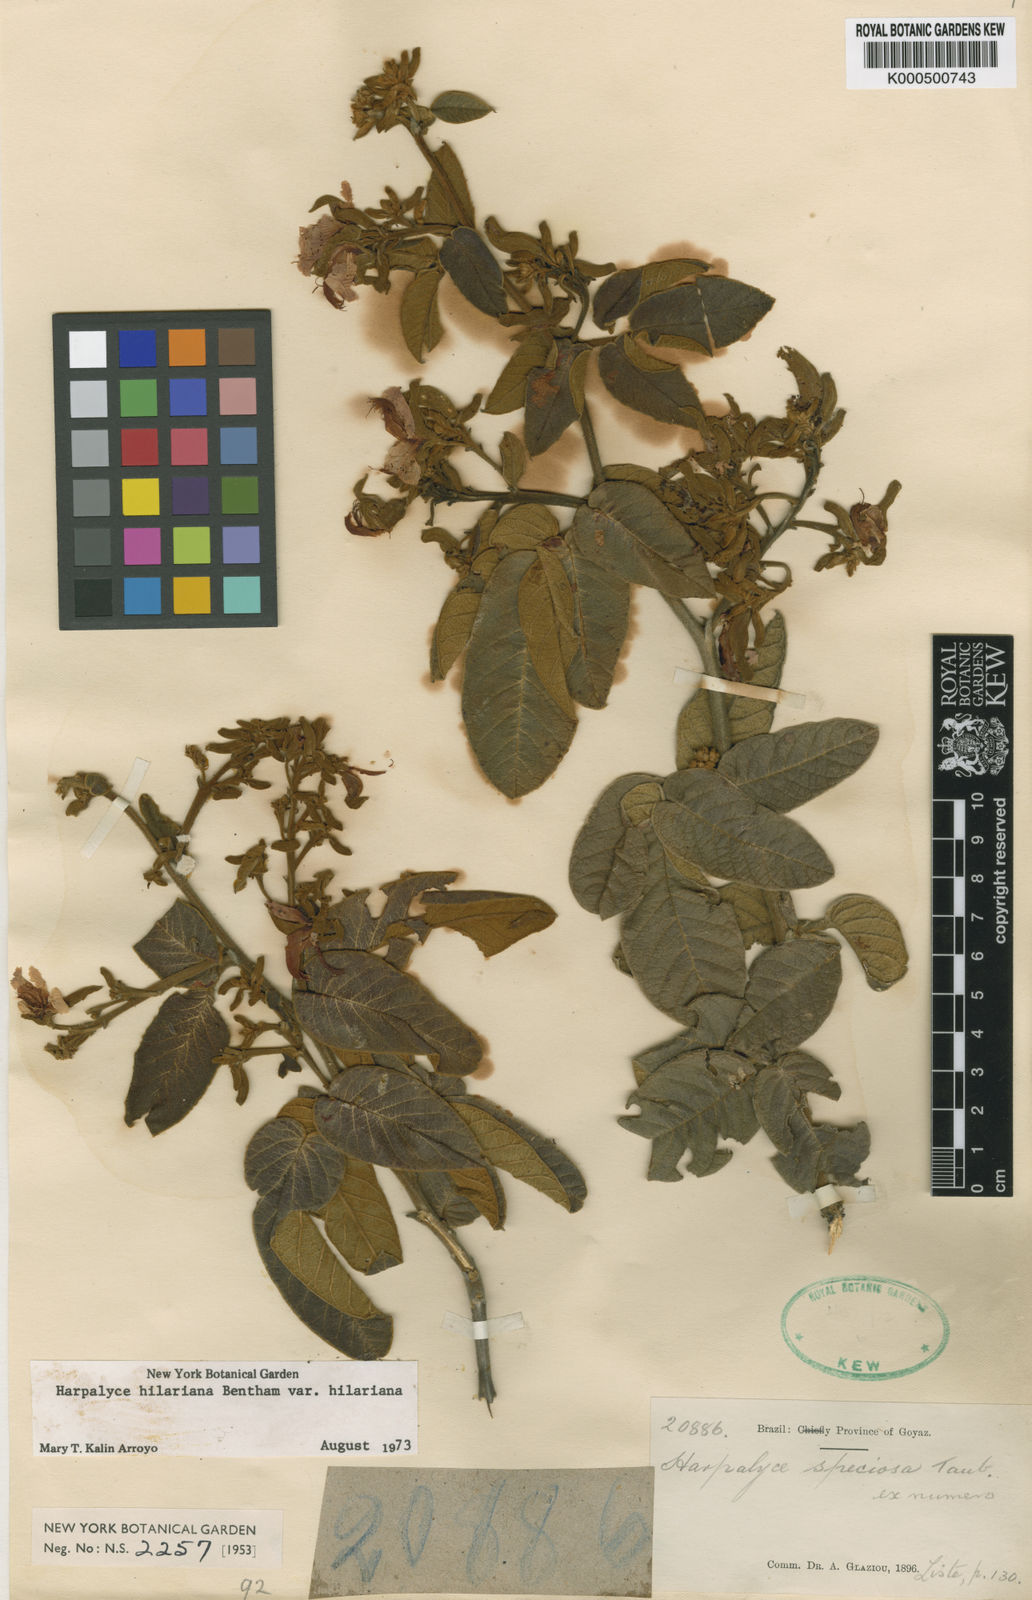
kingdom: Plantae
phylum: Tracheophyta
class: Magnoliopsida
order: Fabales
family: Fabaceae
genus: Harpalyce
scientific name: Harpalyce hilariana
